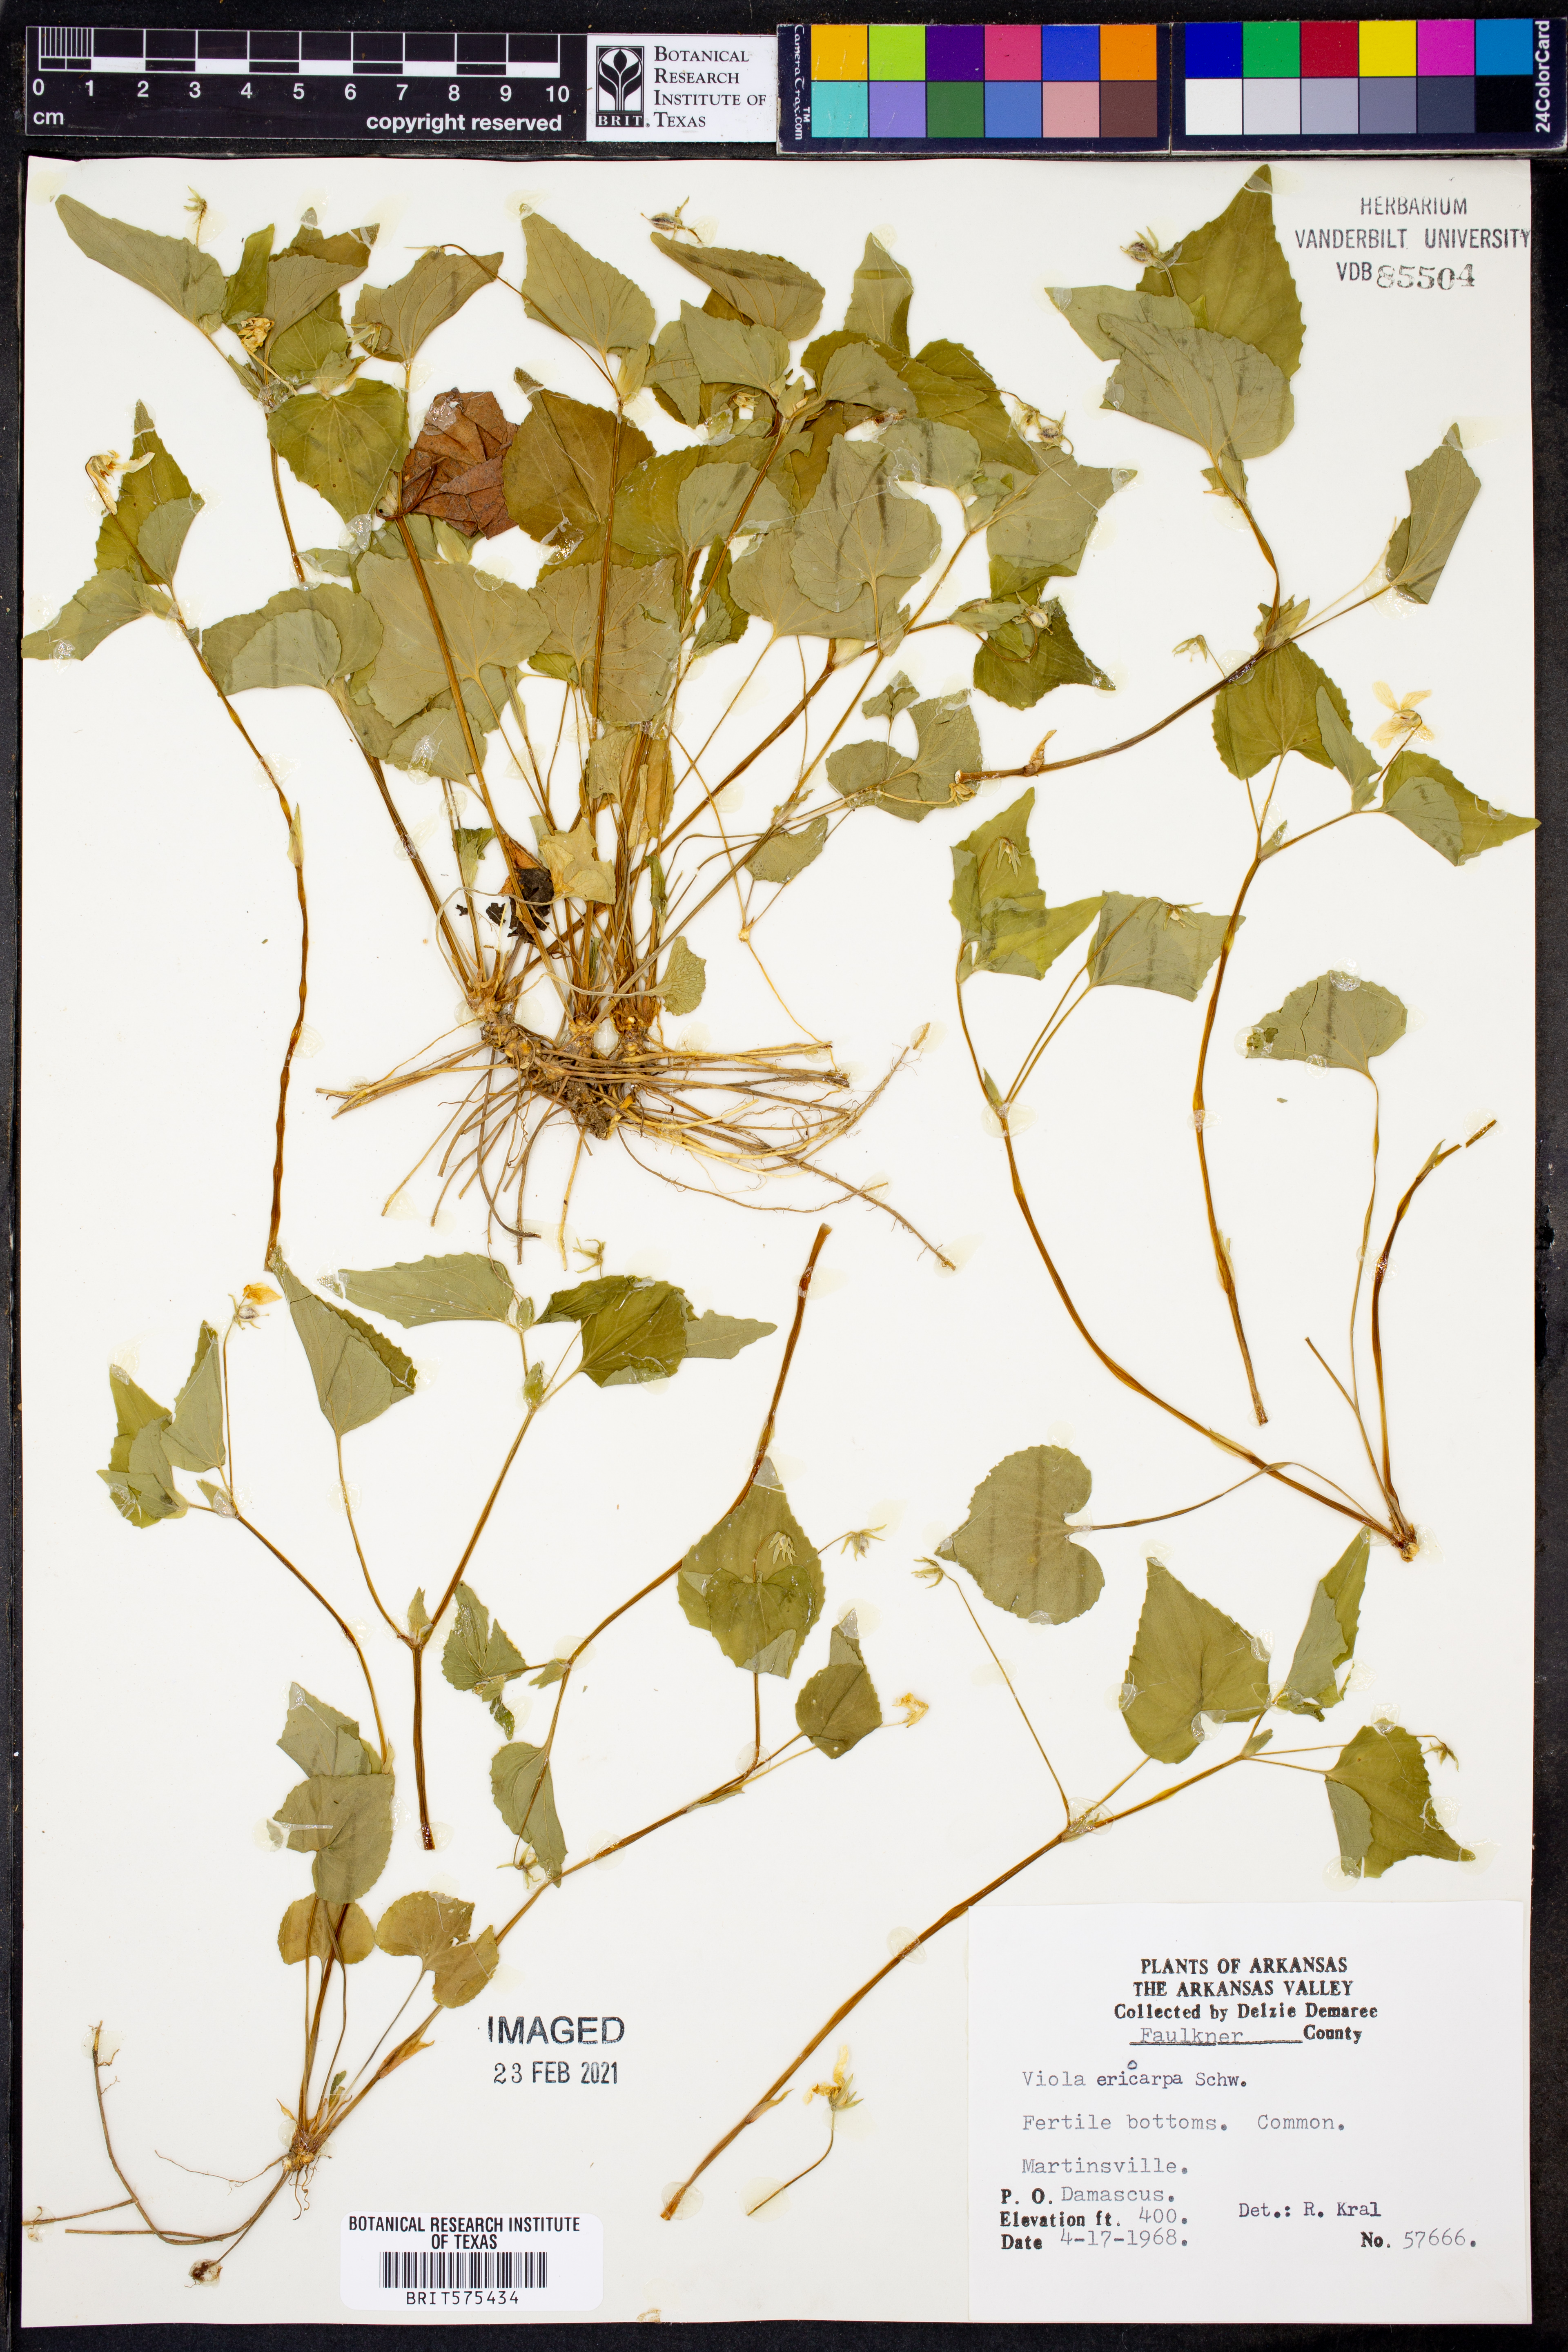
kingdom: Plantae
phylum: Tracheophyta
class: Magnoliopsida
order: Malpighiales
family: Violaceae
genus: Viola
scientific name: Viola eriocarpa
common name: Smooth yellow violet
